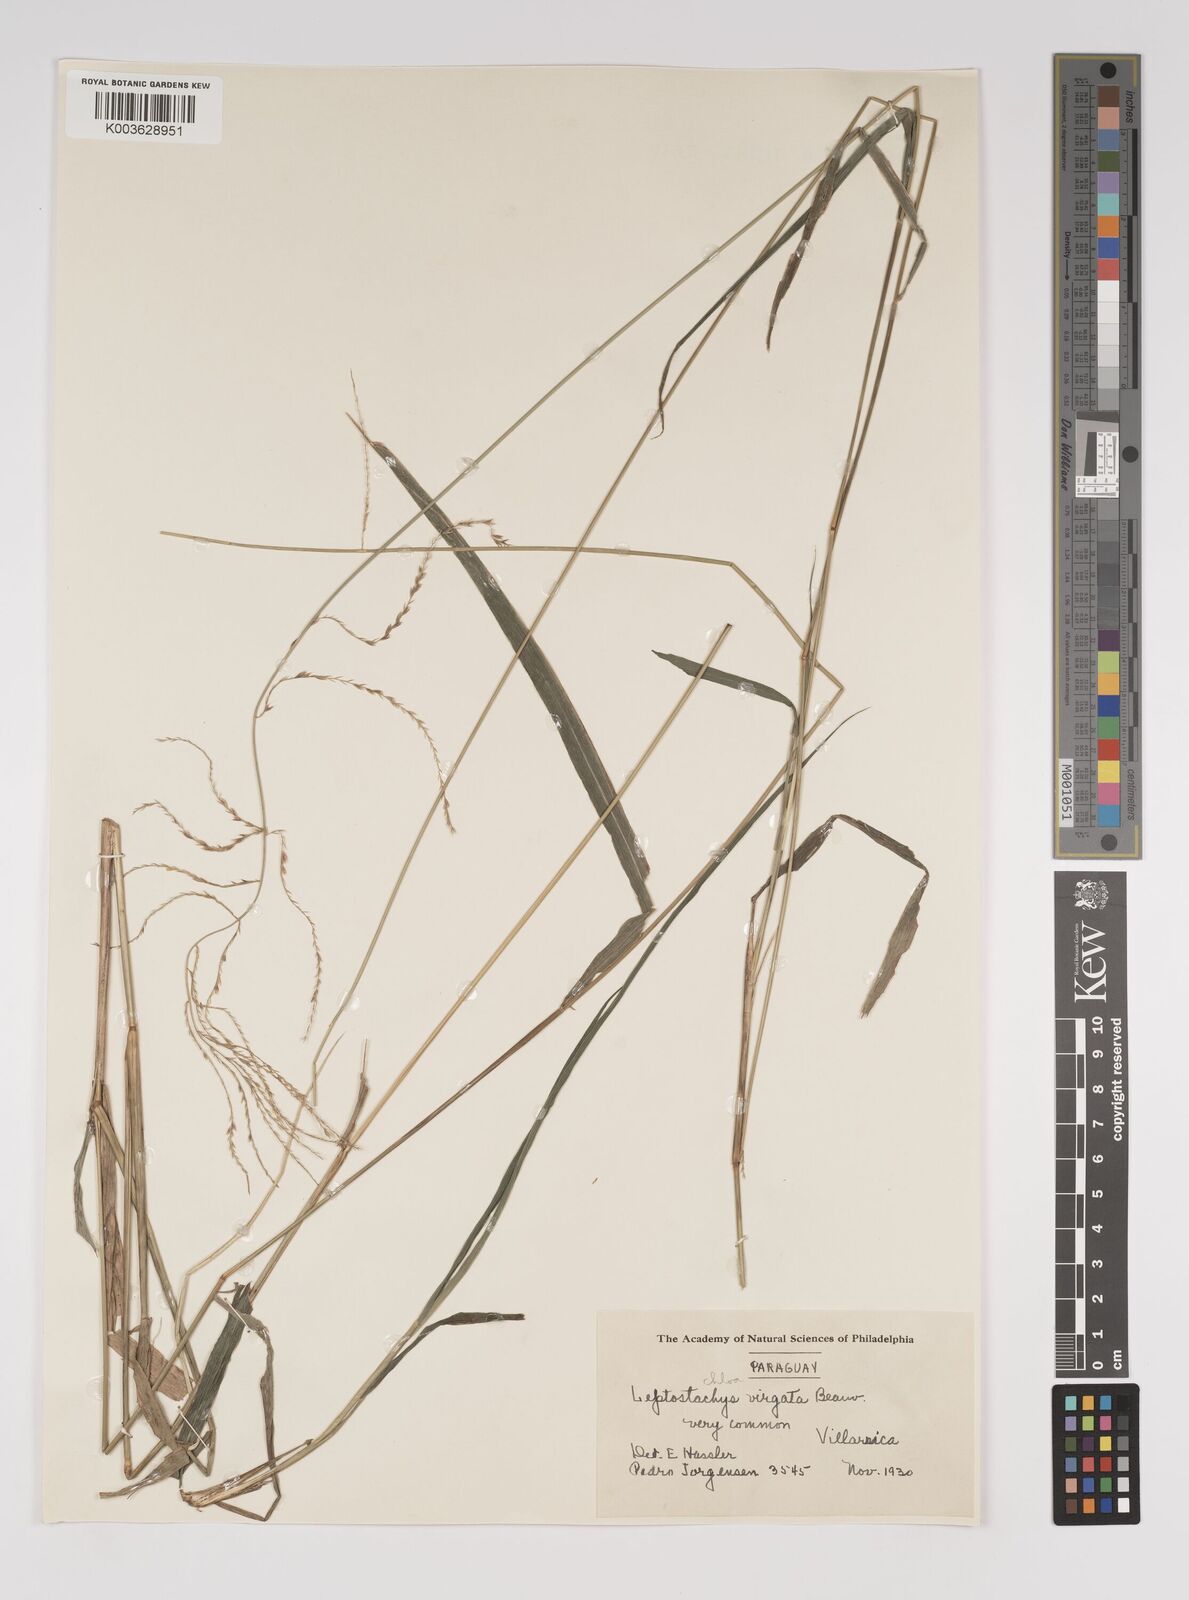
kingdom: Plantae
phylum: Tracheophyta
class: Liliopsida
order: Poales
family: Poaceae
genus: Leptochloa
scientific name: Leptochloa virgata
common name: Tropical sprangletop
